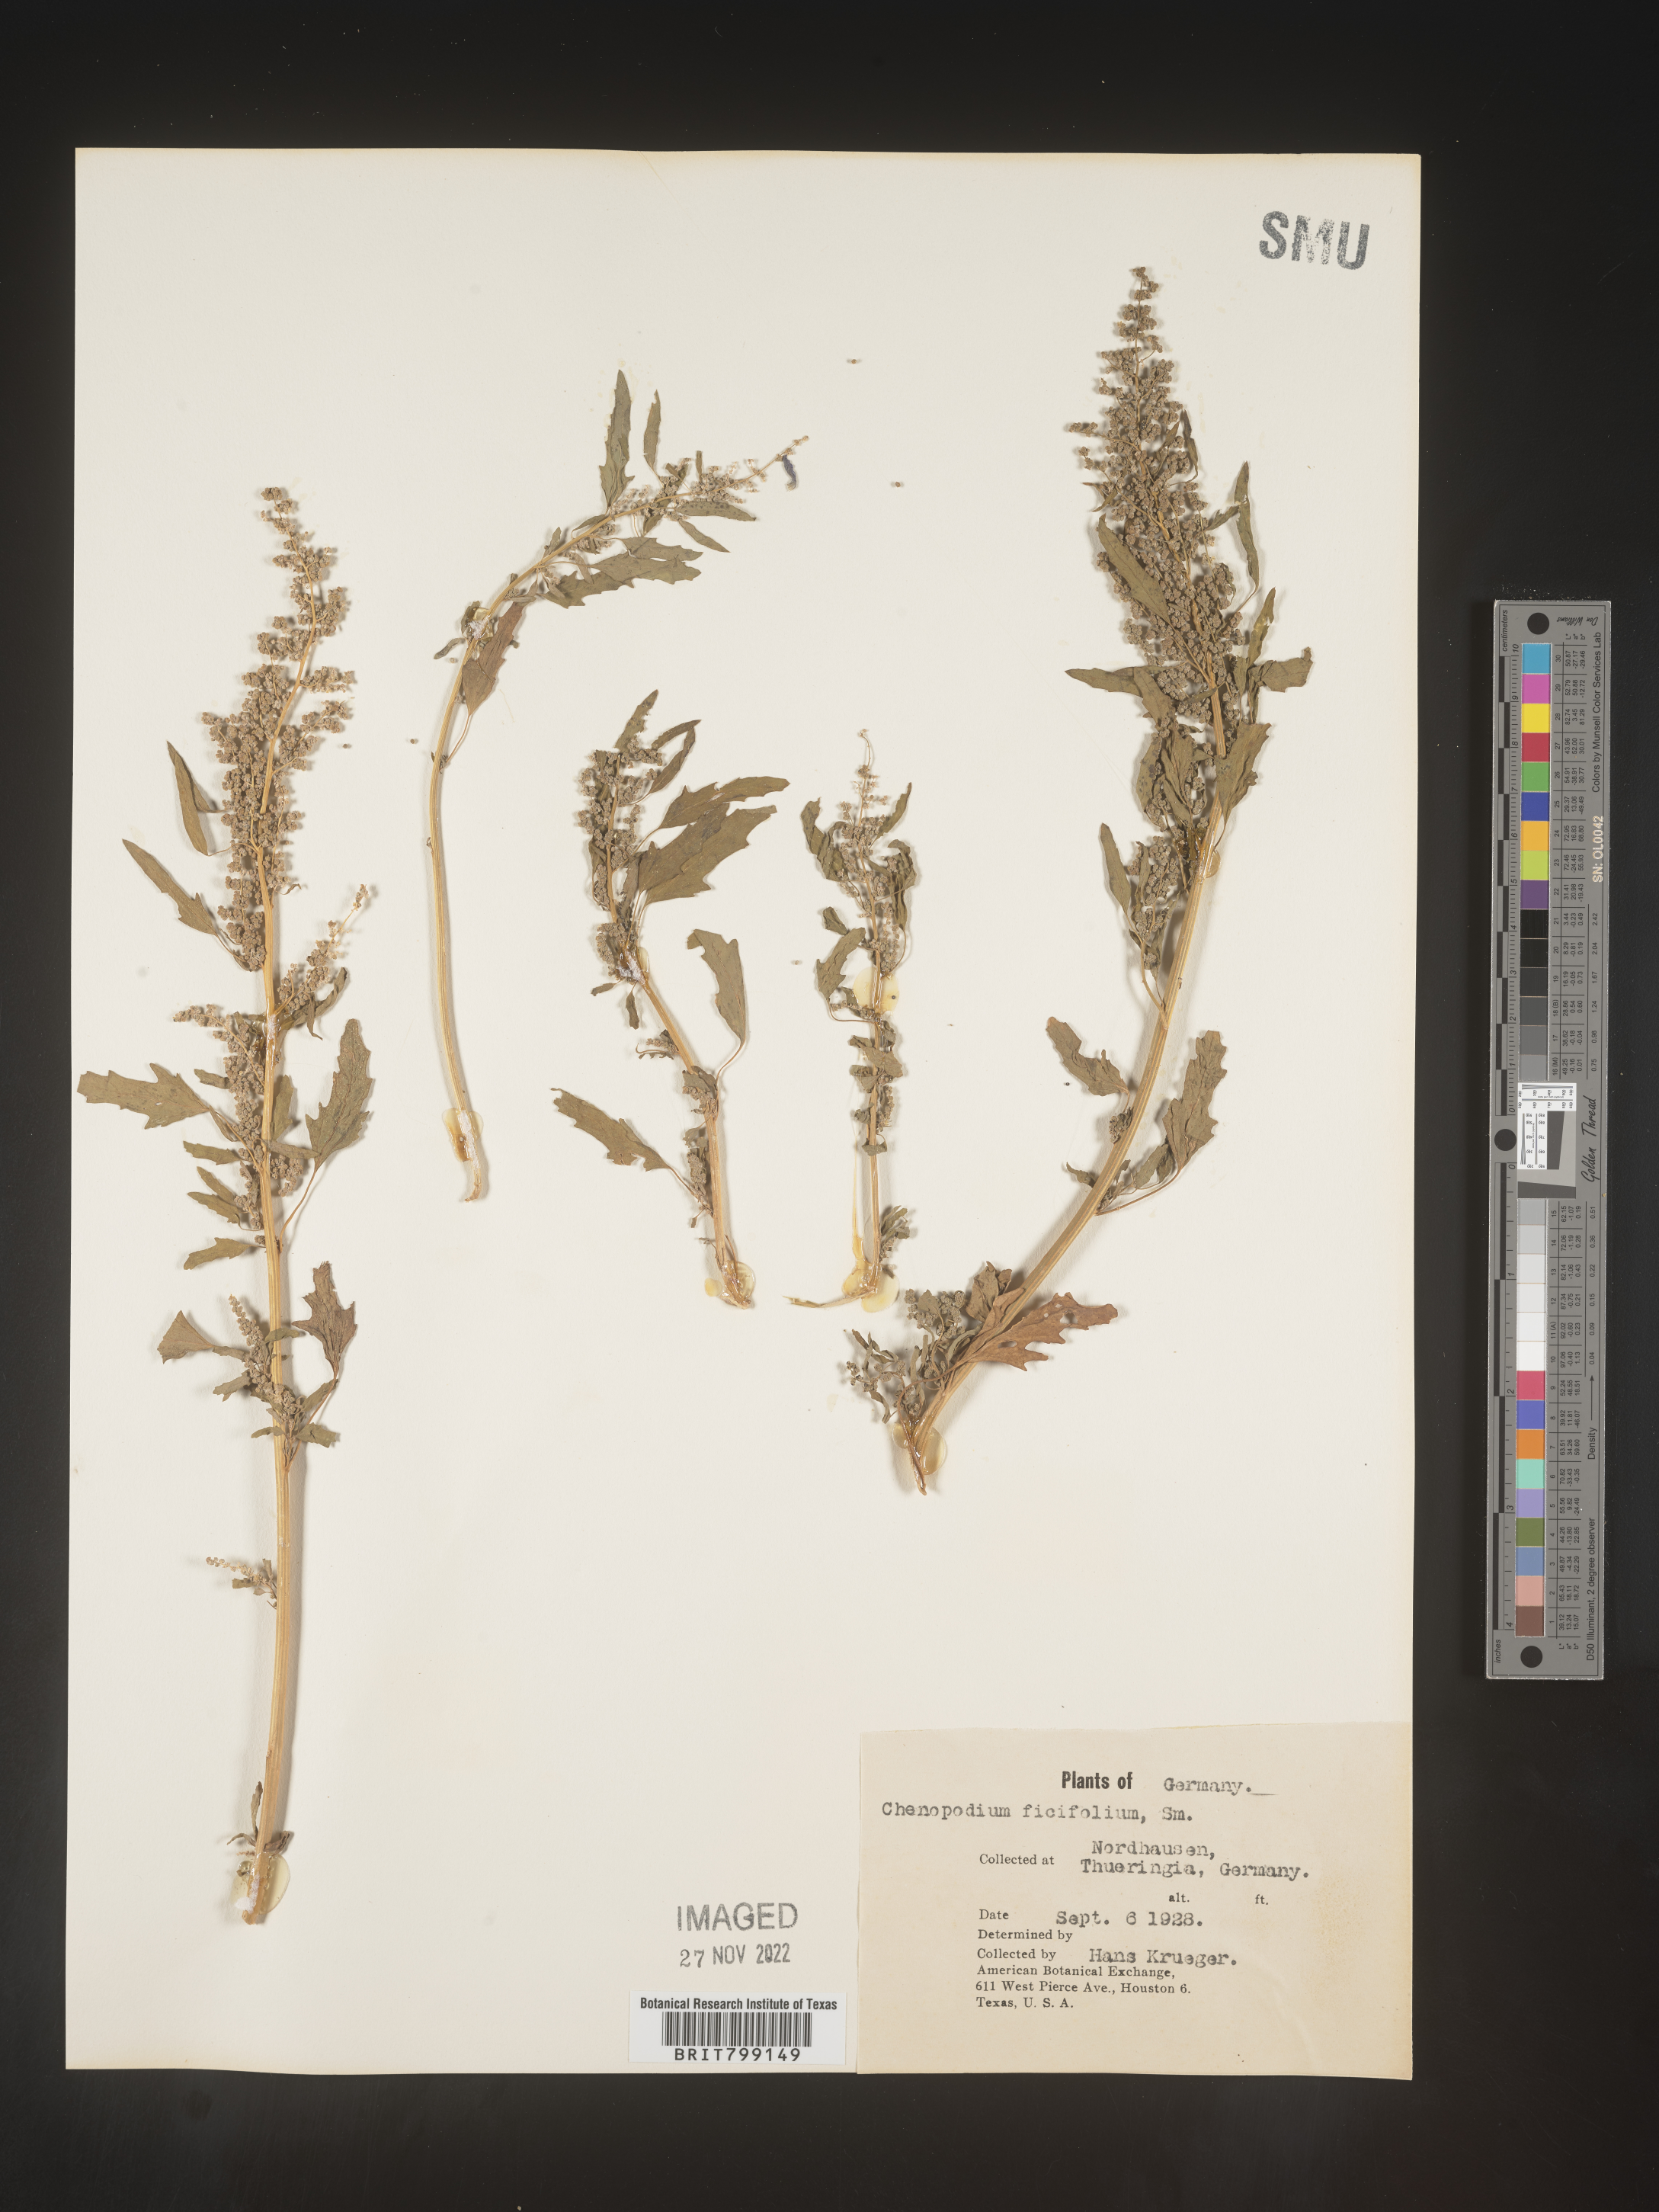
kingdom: Plantae
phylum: Tracheophyta
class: Magnoliopsida
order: Caryophyllales
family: Amaranthaceae
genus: Chenopodium
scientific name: Chenopodium
